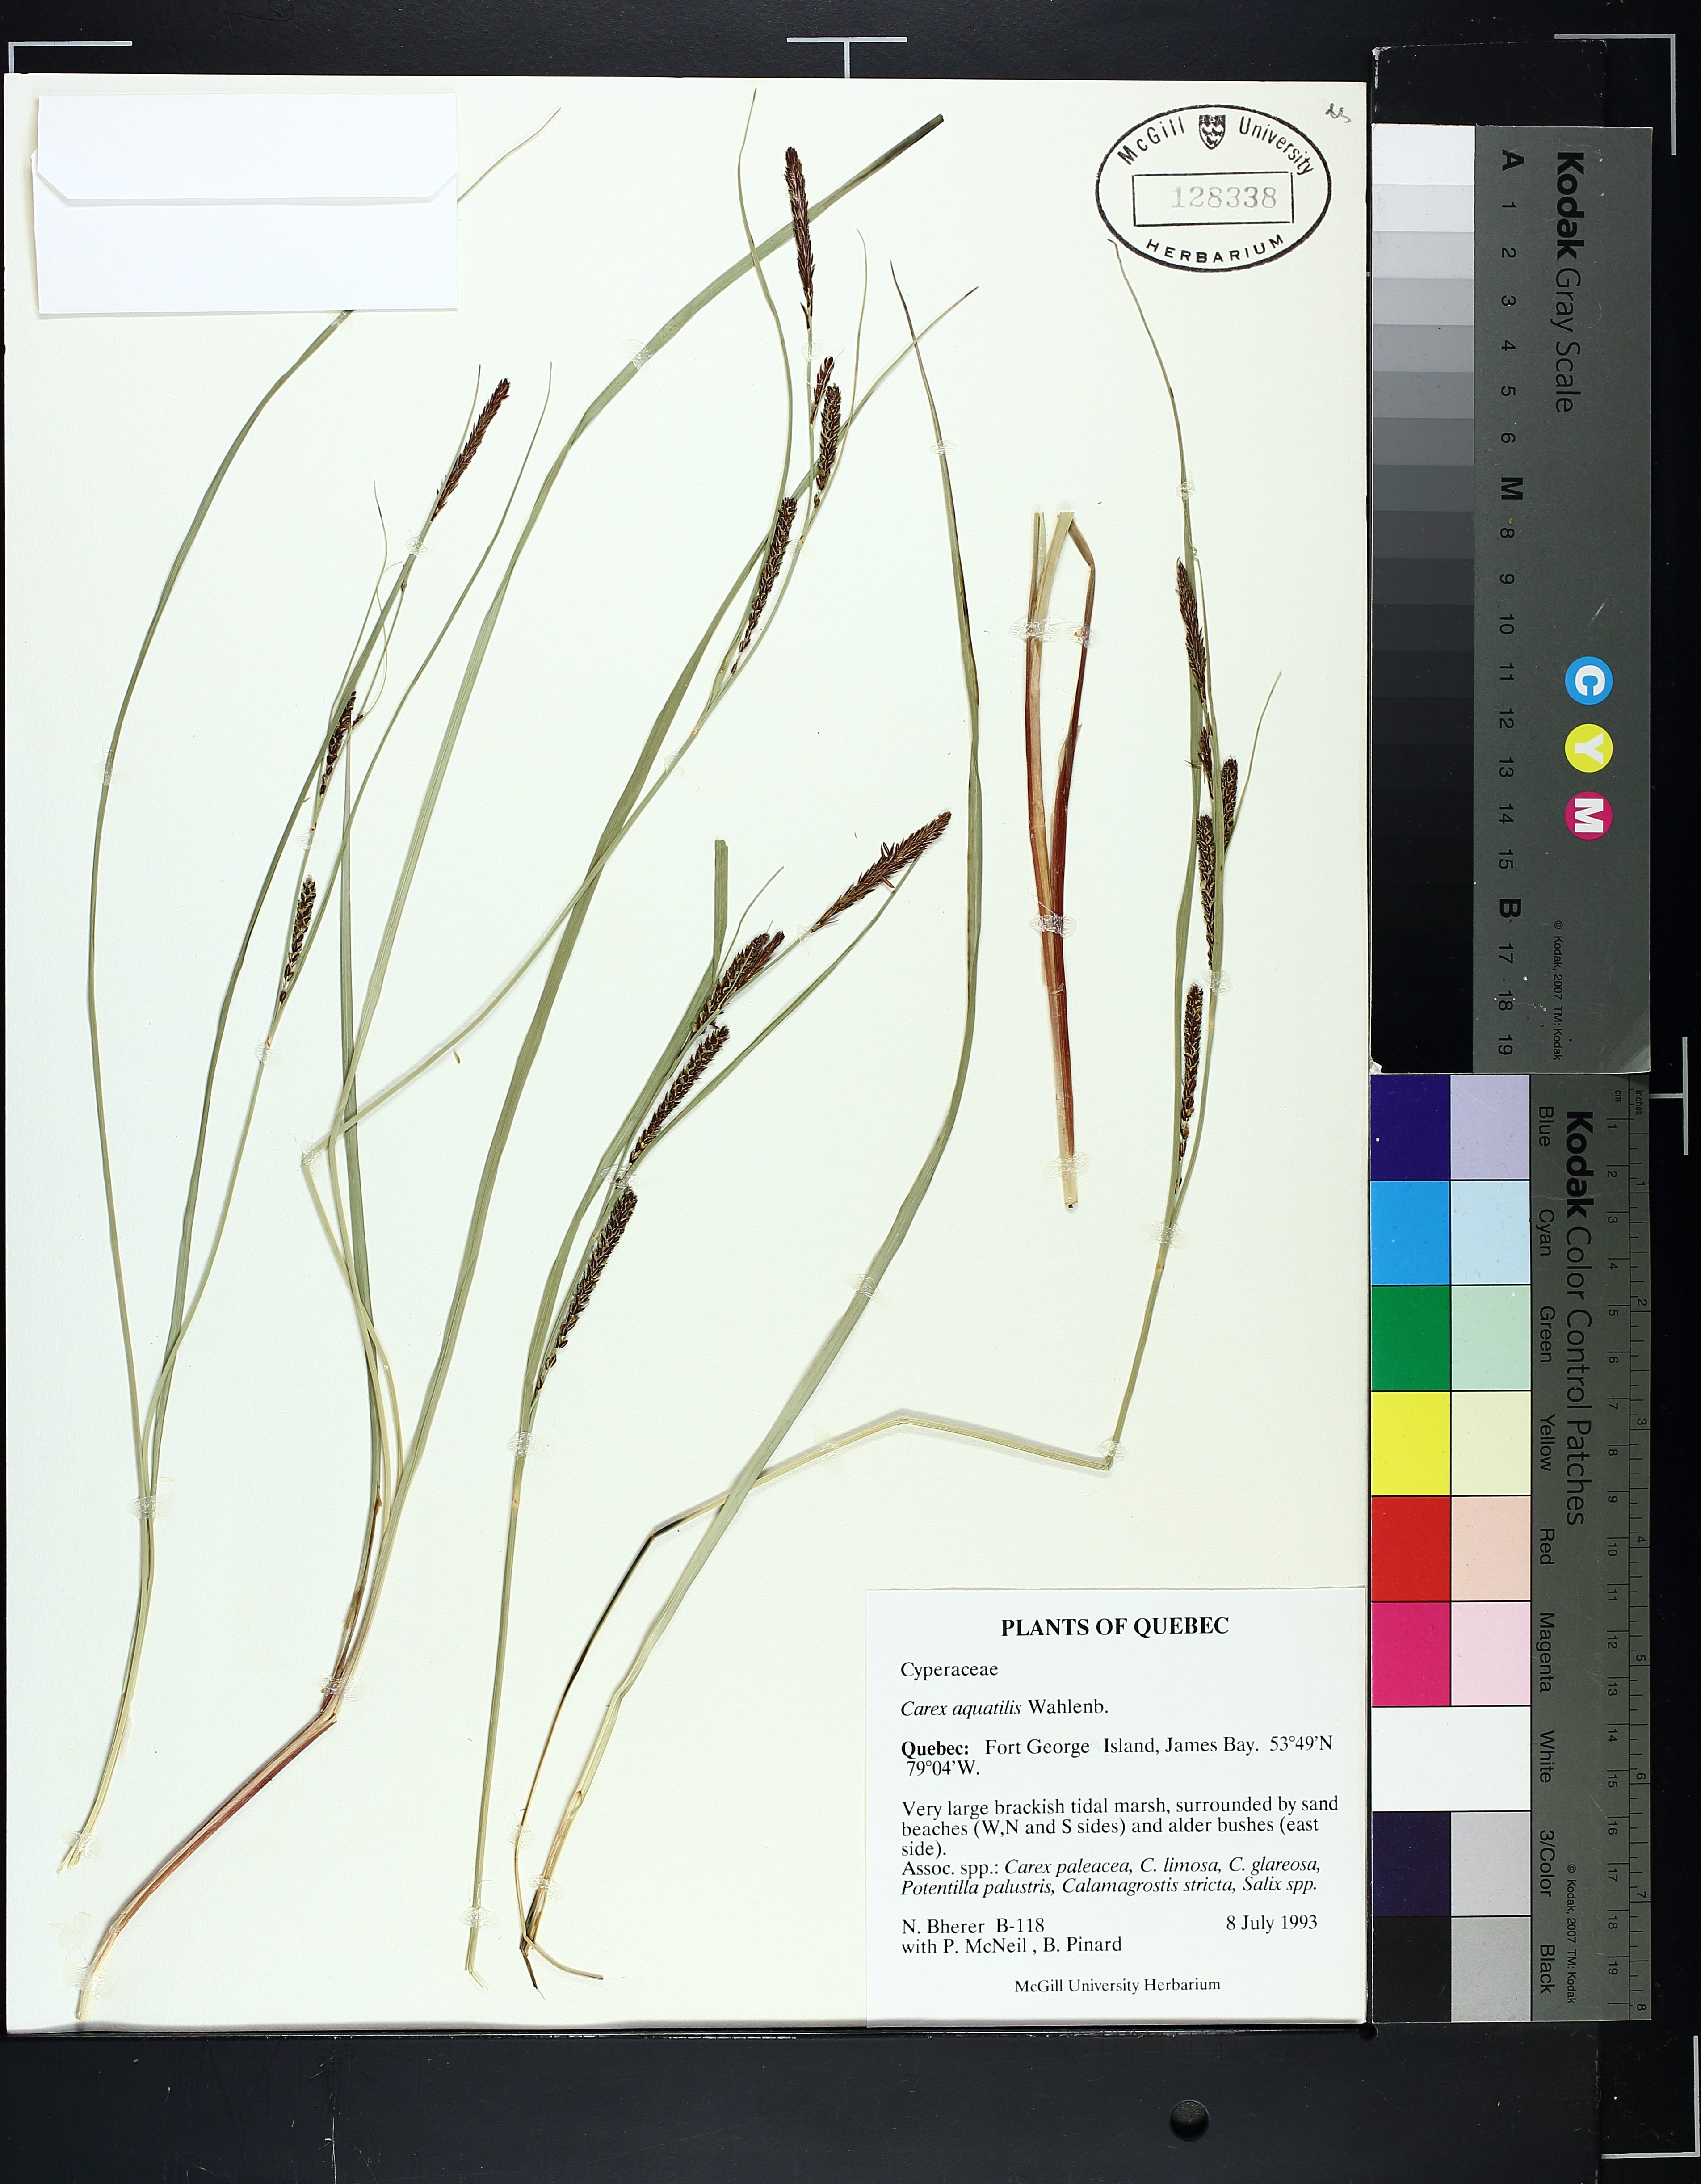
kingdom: Plantae
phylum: Tracheophyta
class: Liliopsida
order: Poales
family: Cyperaceae
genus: Carex
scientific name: Carex aquatilis
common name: Water sedge
